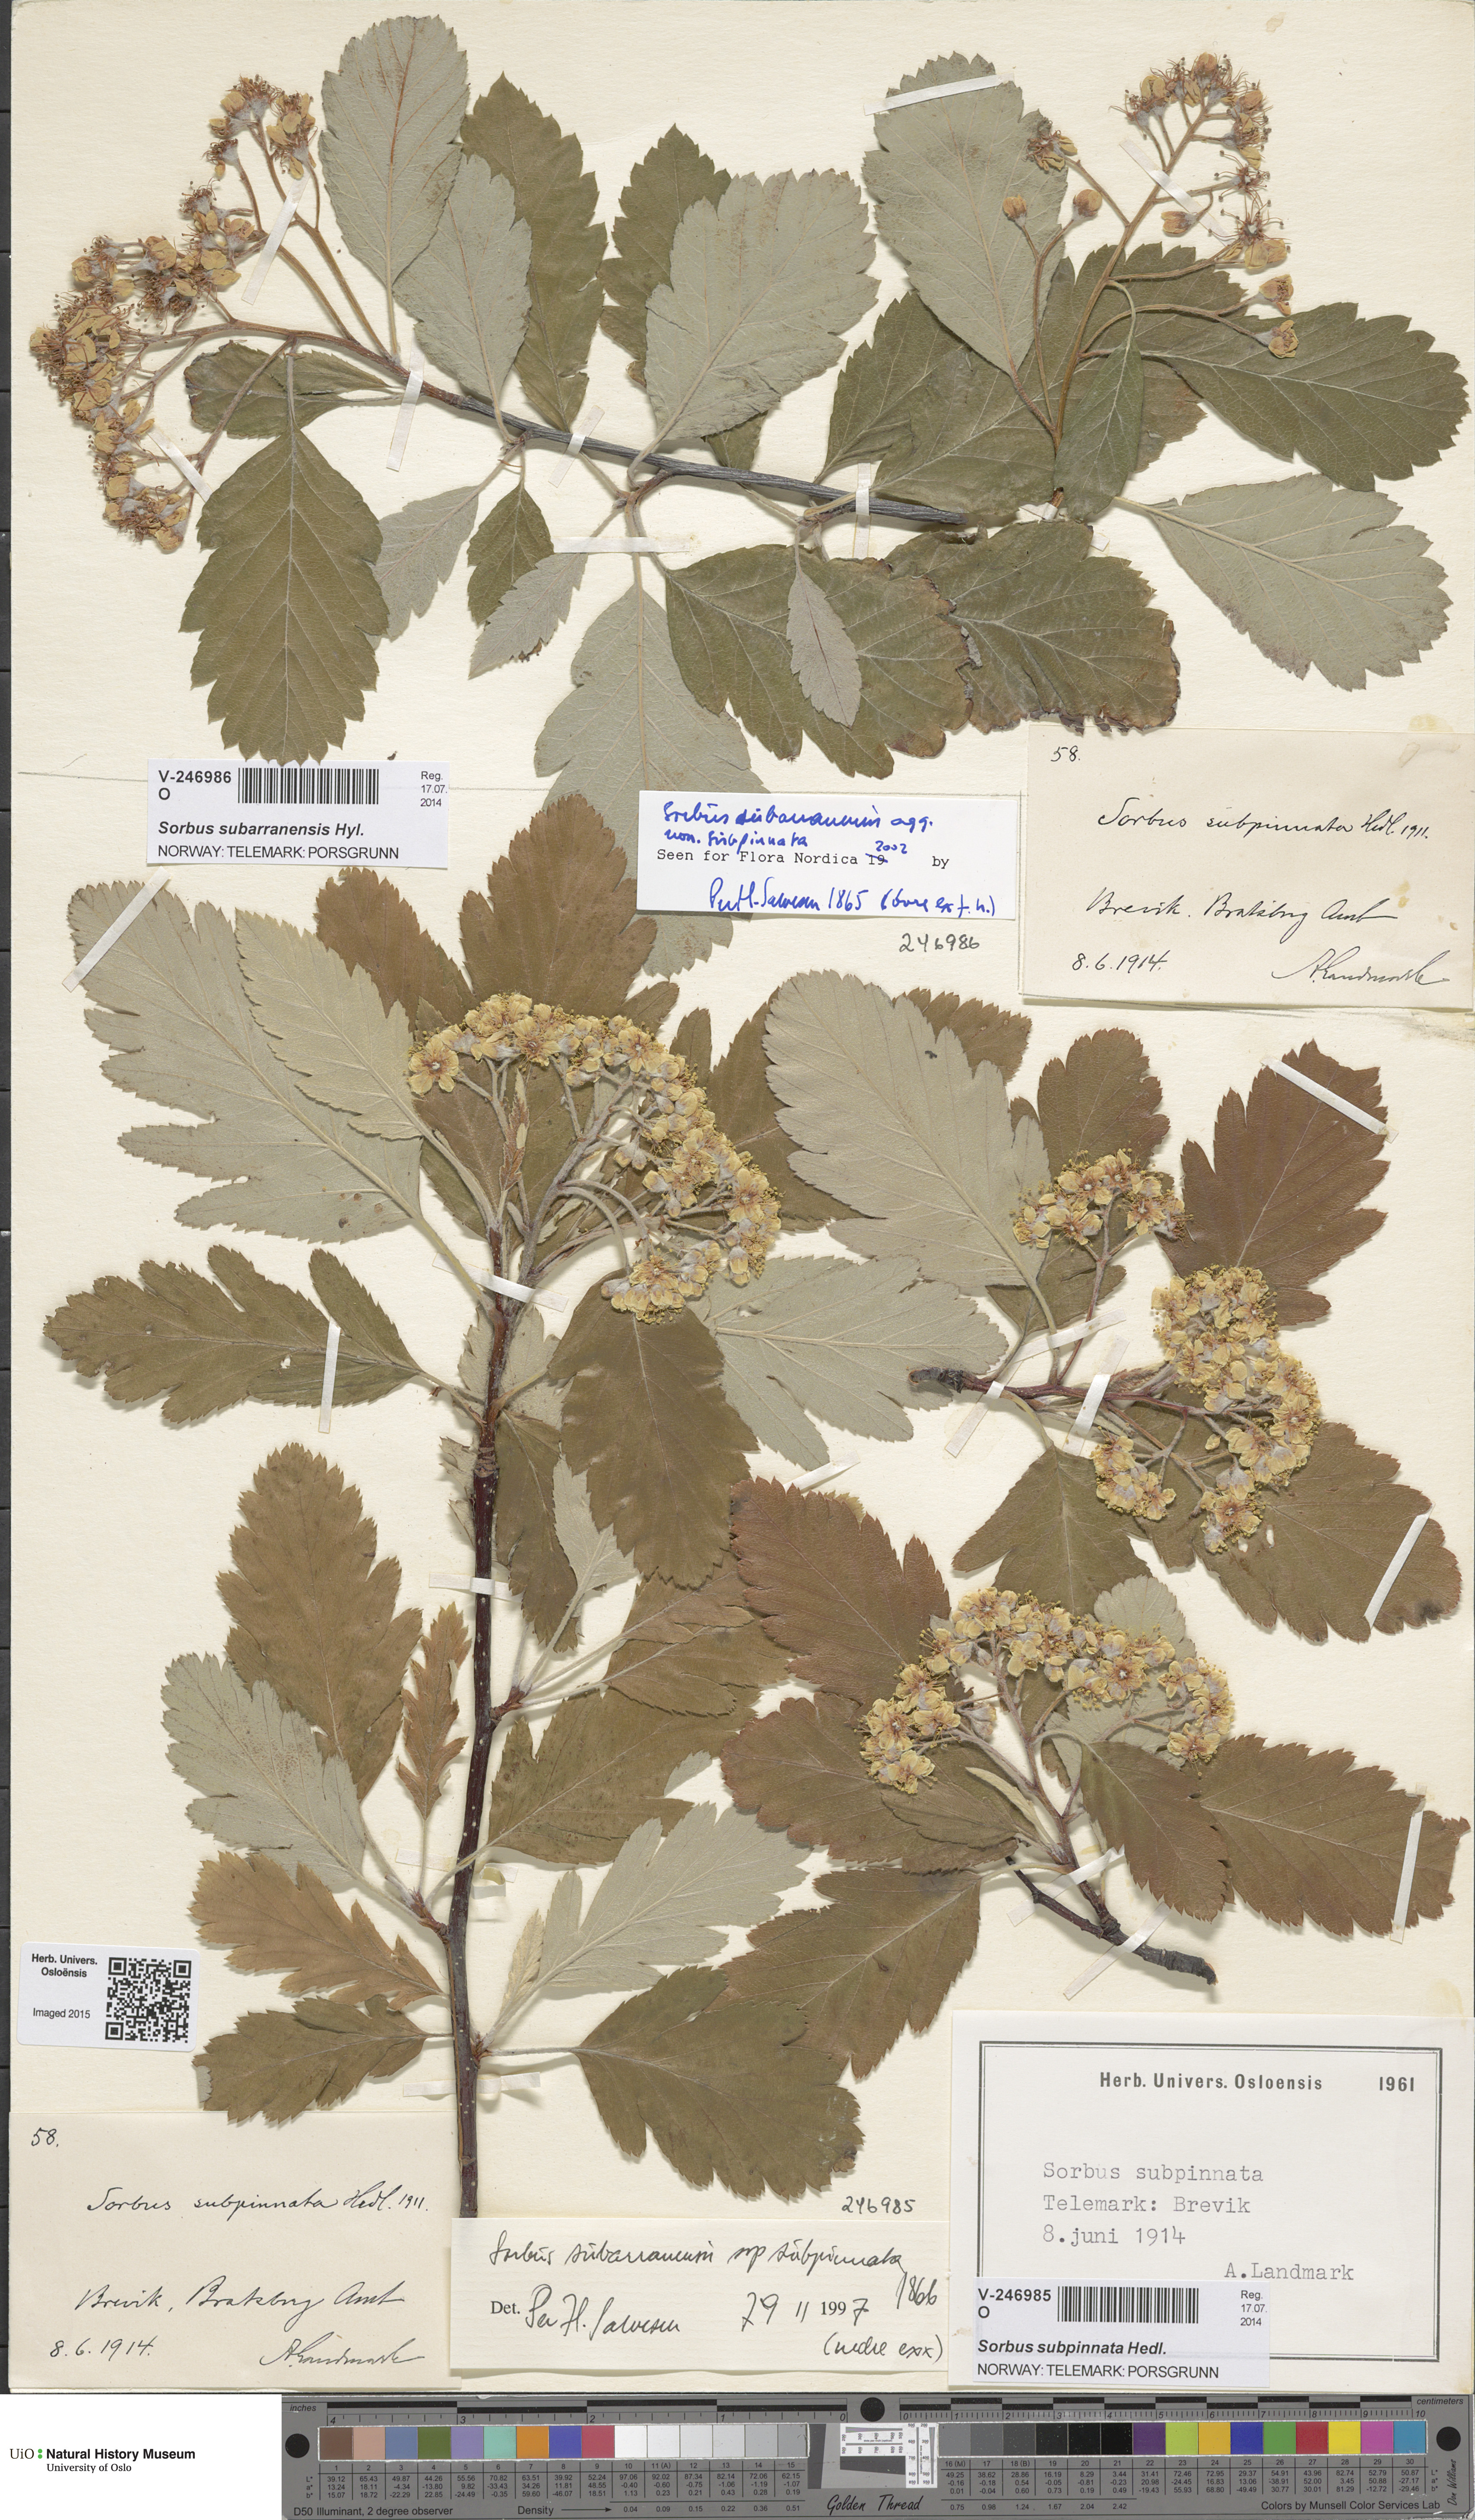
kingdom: Plantae
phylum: Tracheophyta
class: Magnoliopsida
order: Rosales
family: Rosaceae
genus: Hedlundia
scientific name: Hedlundia subarranensis
